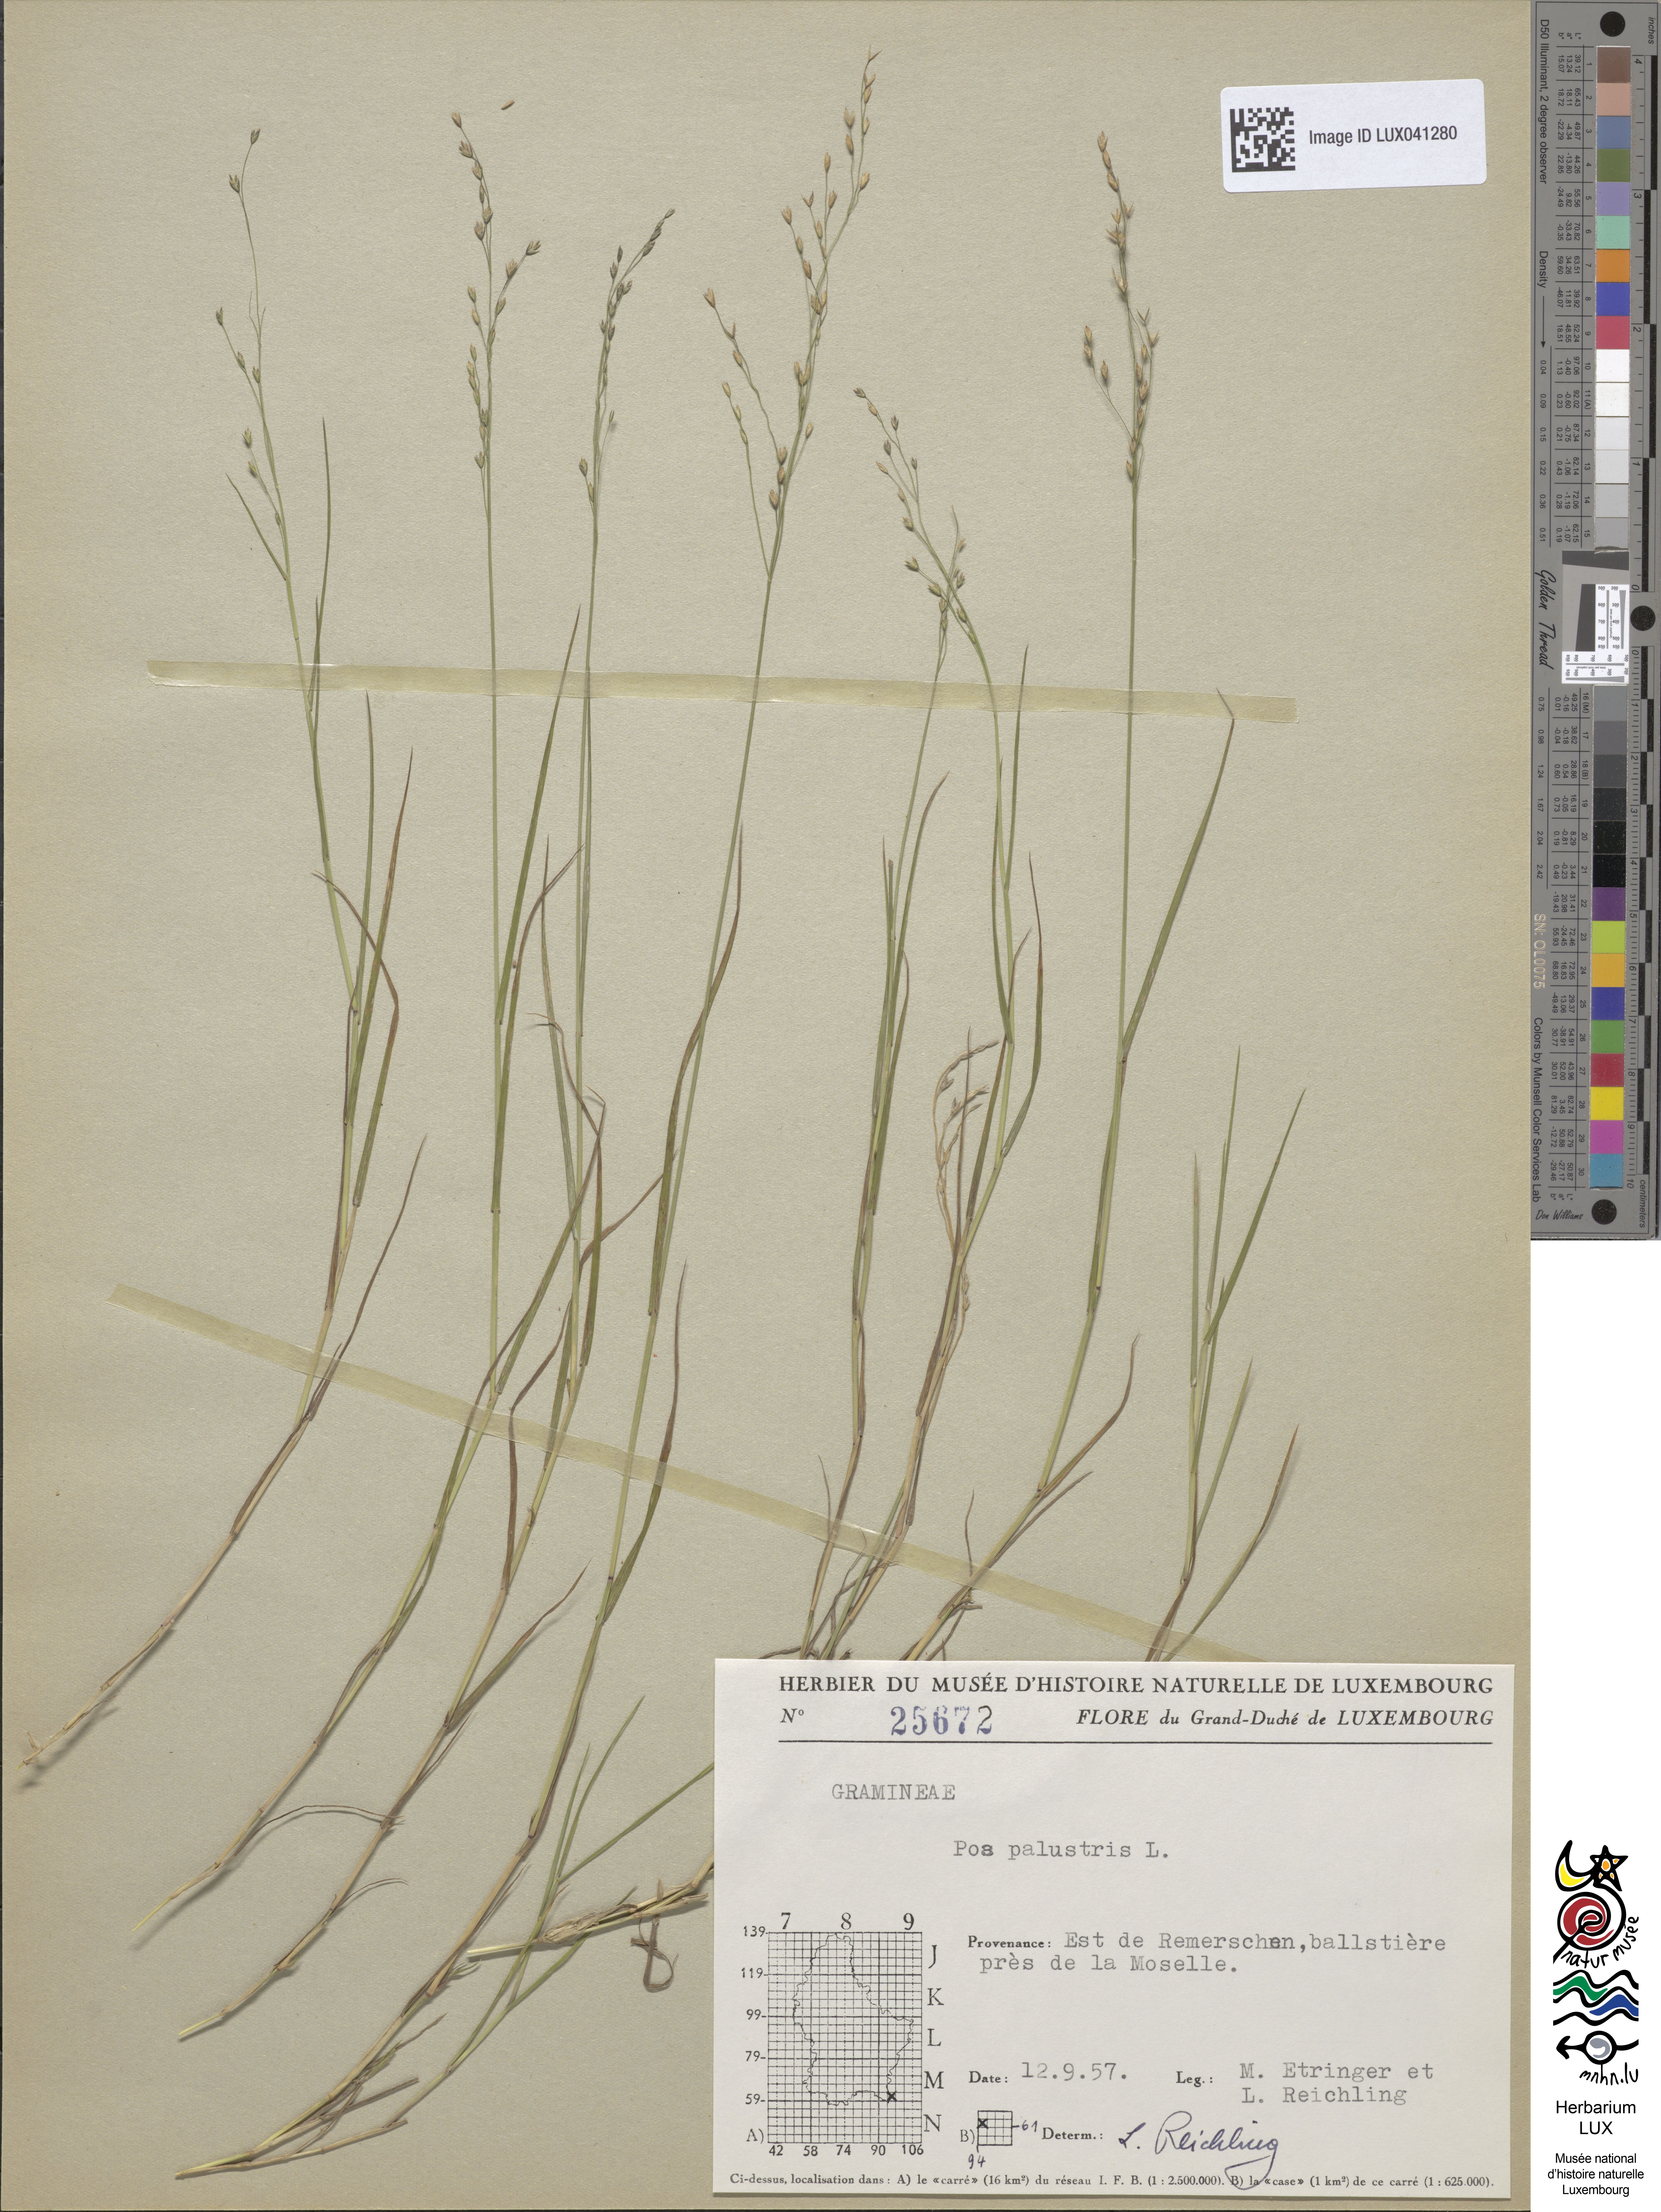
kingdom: Plantae
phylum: Tracheophyta
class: Liliopsida
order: Poales
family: Poaceae
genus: Poa
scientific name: Poa palustris
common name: Swamp meadow-grass
